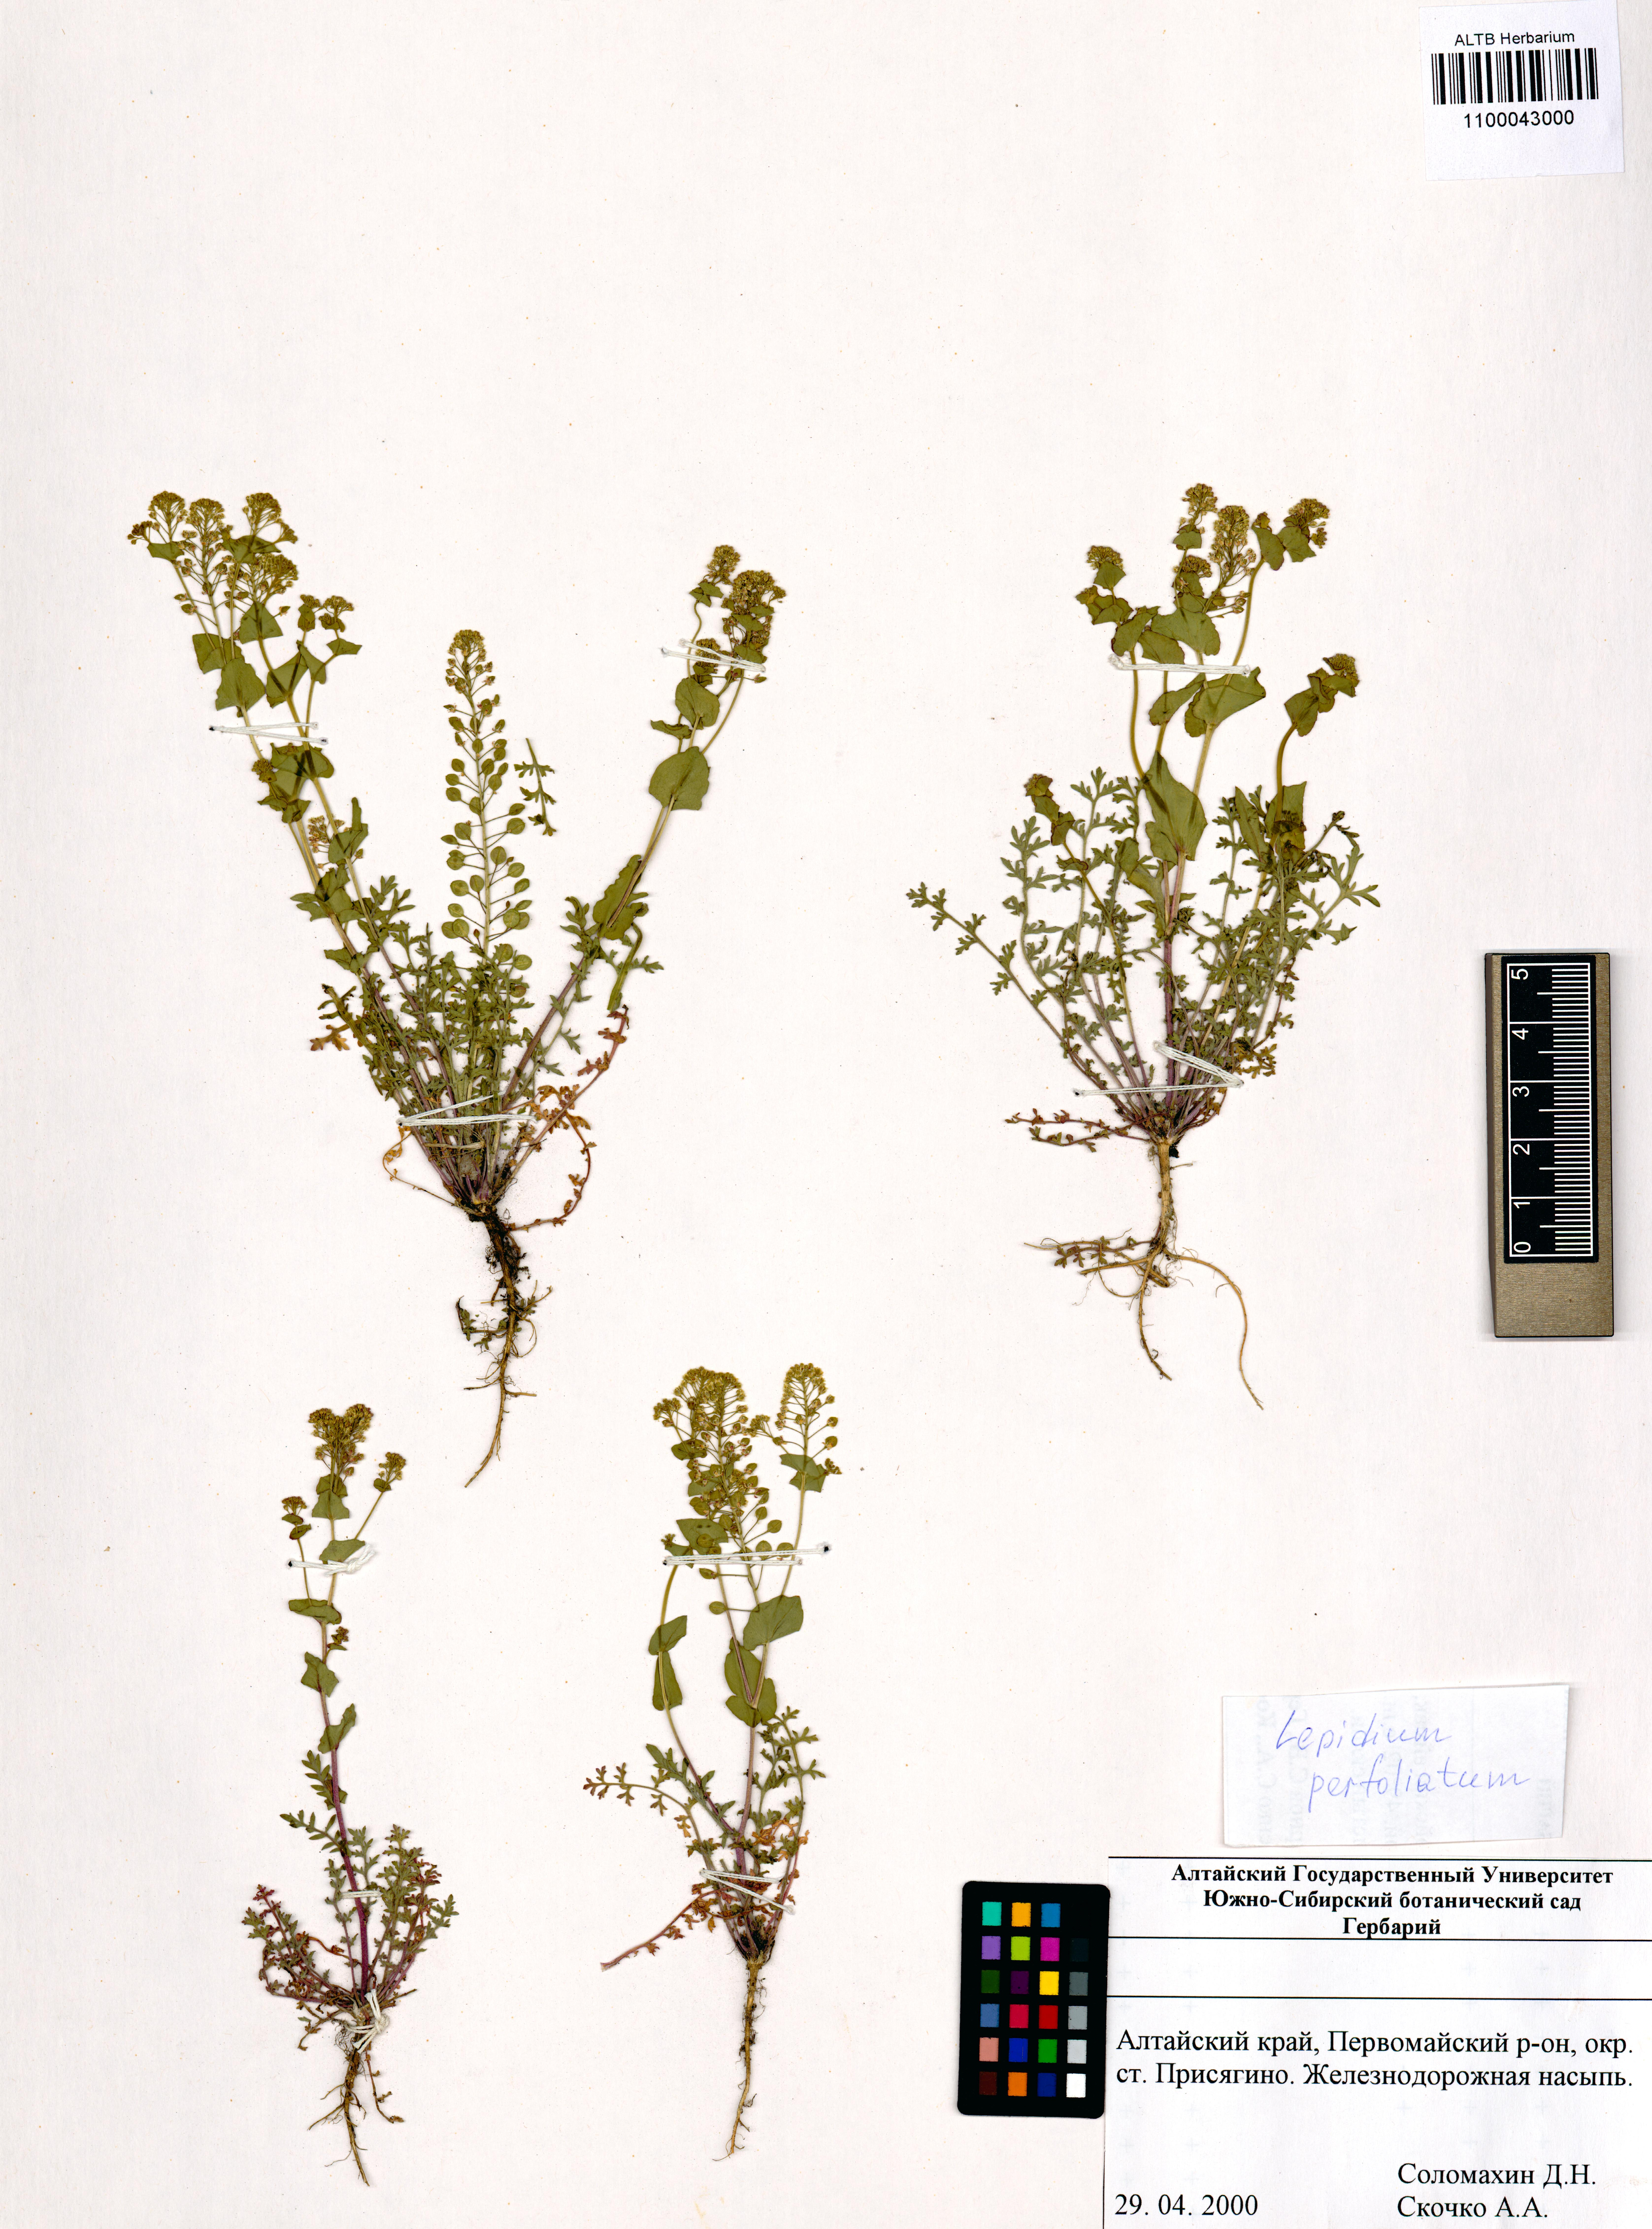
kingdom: Plantae
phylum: Tracheophyta
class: Magnoliopsida
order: Brassicales
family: Brassicaceae
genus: Lepidium
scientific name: Lepidium perfoliatum
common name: Perfoliate pepperwort
